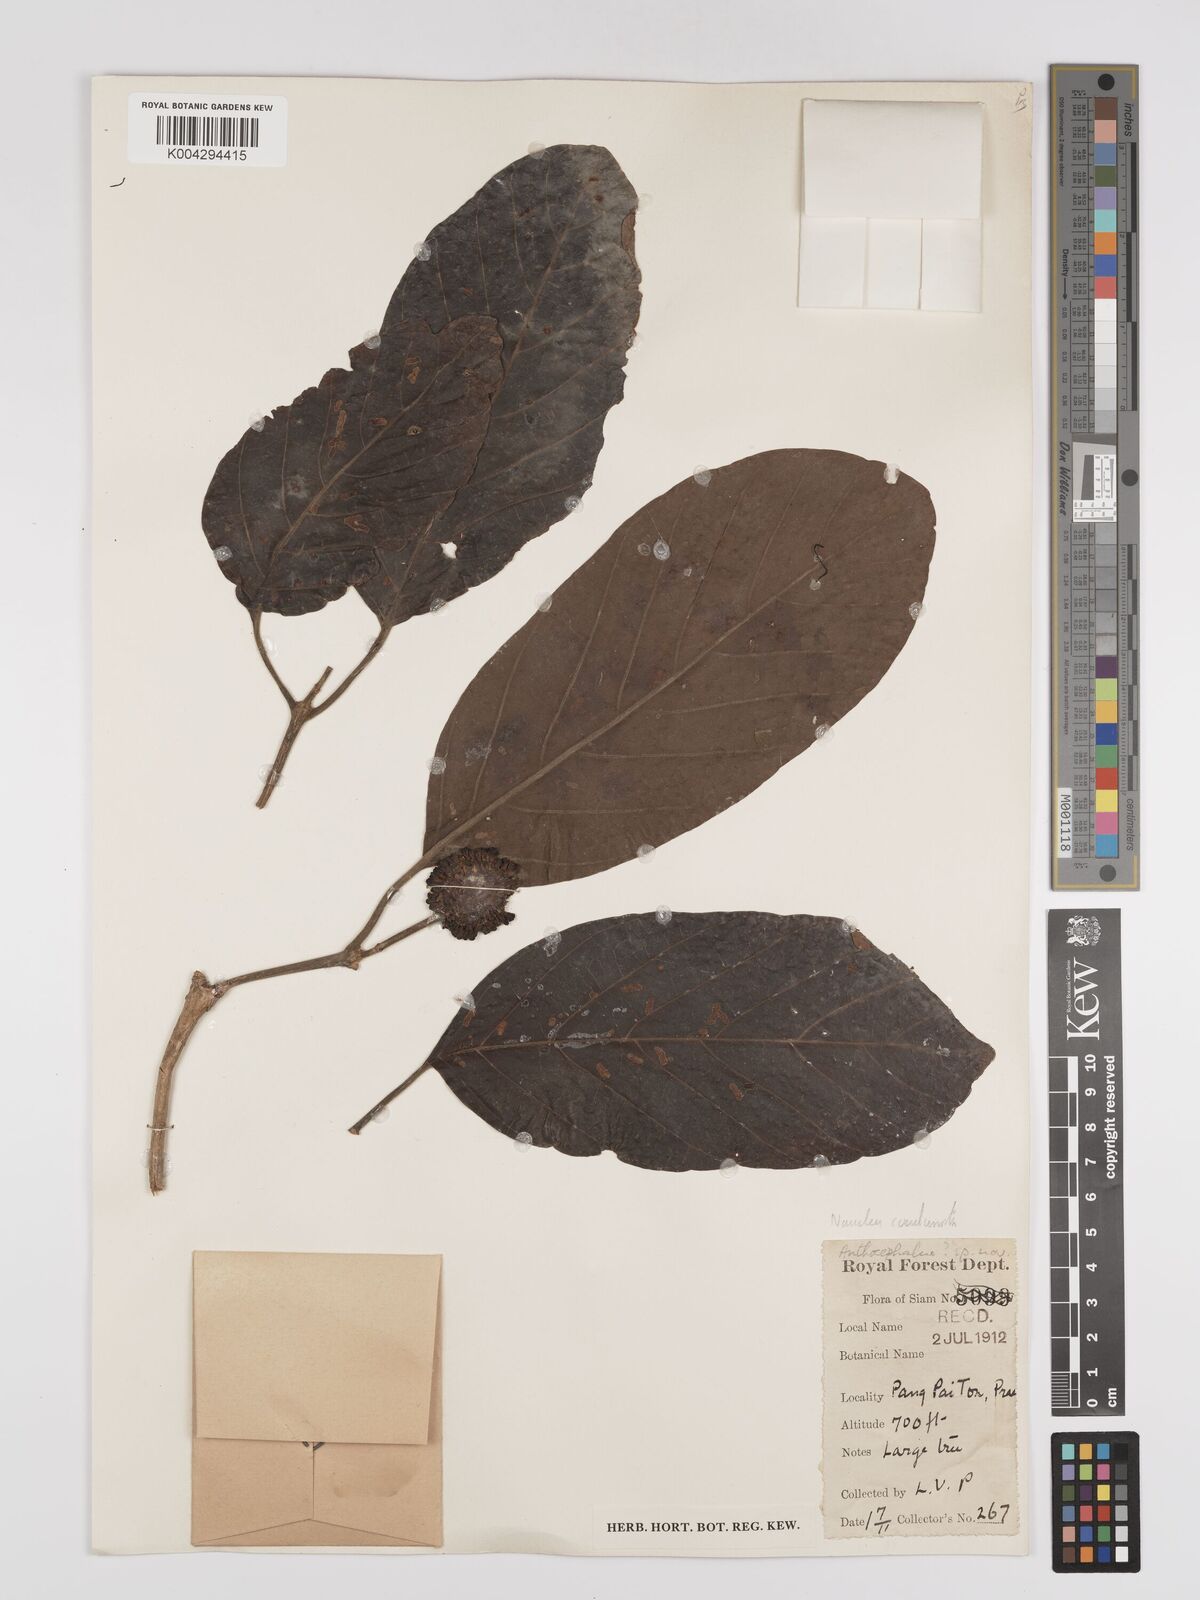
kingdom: Plantae
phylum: Tracheophyta
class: Magnoliopsida
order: Gentianales
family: Rubiaceae
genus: Nauclea
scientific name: Nauclea orientalis
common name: Leichhardt-pine
